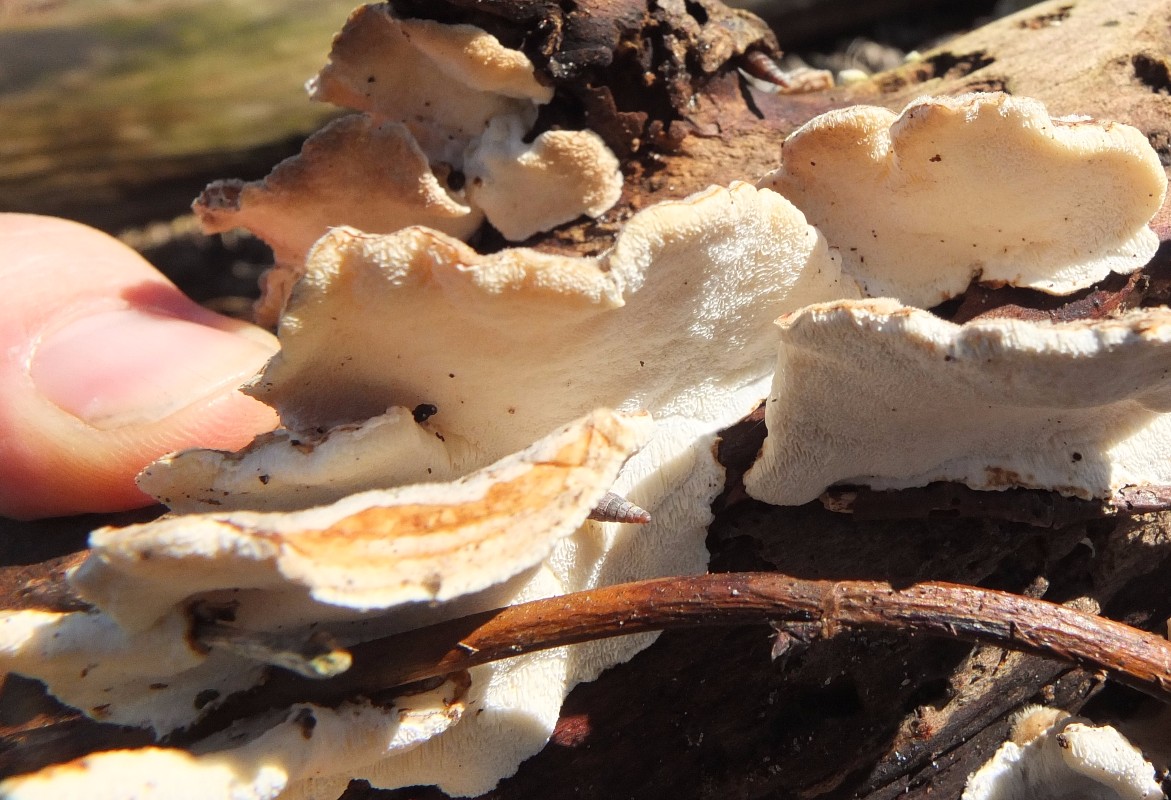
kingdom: Fungi
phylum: Basidiomycota
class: Agaricomycetes
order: Polyporales
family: Polyporaceae
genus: Trametes
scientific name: Trametes
